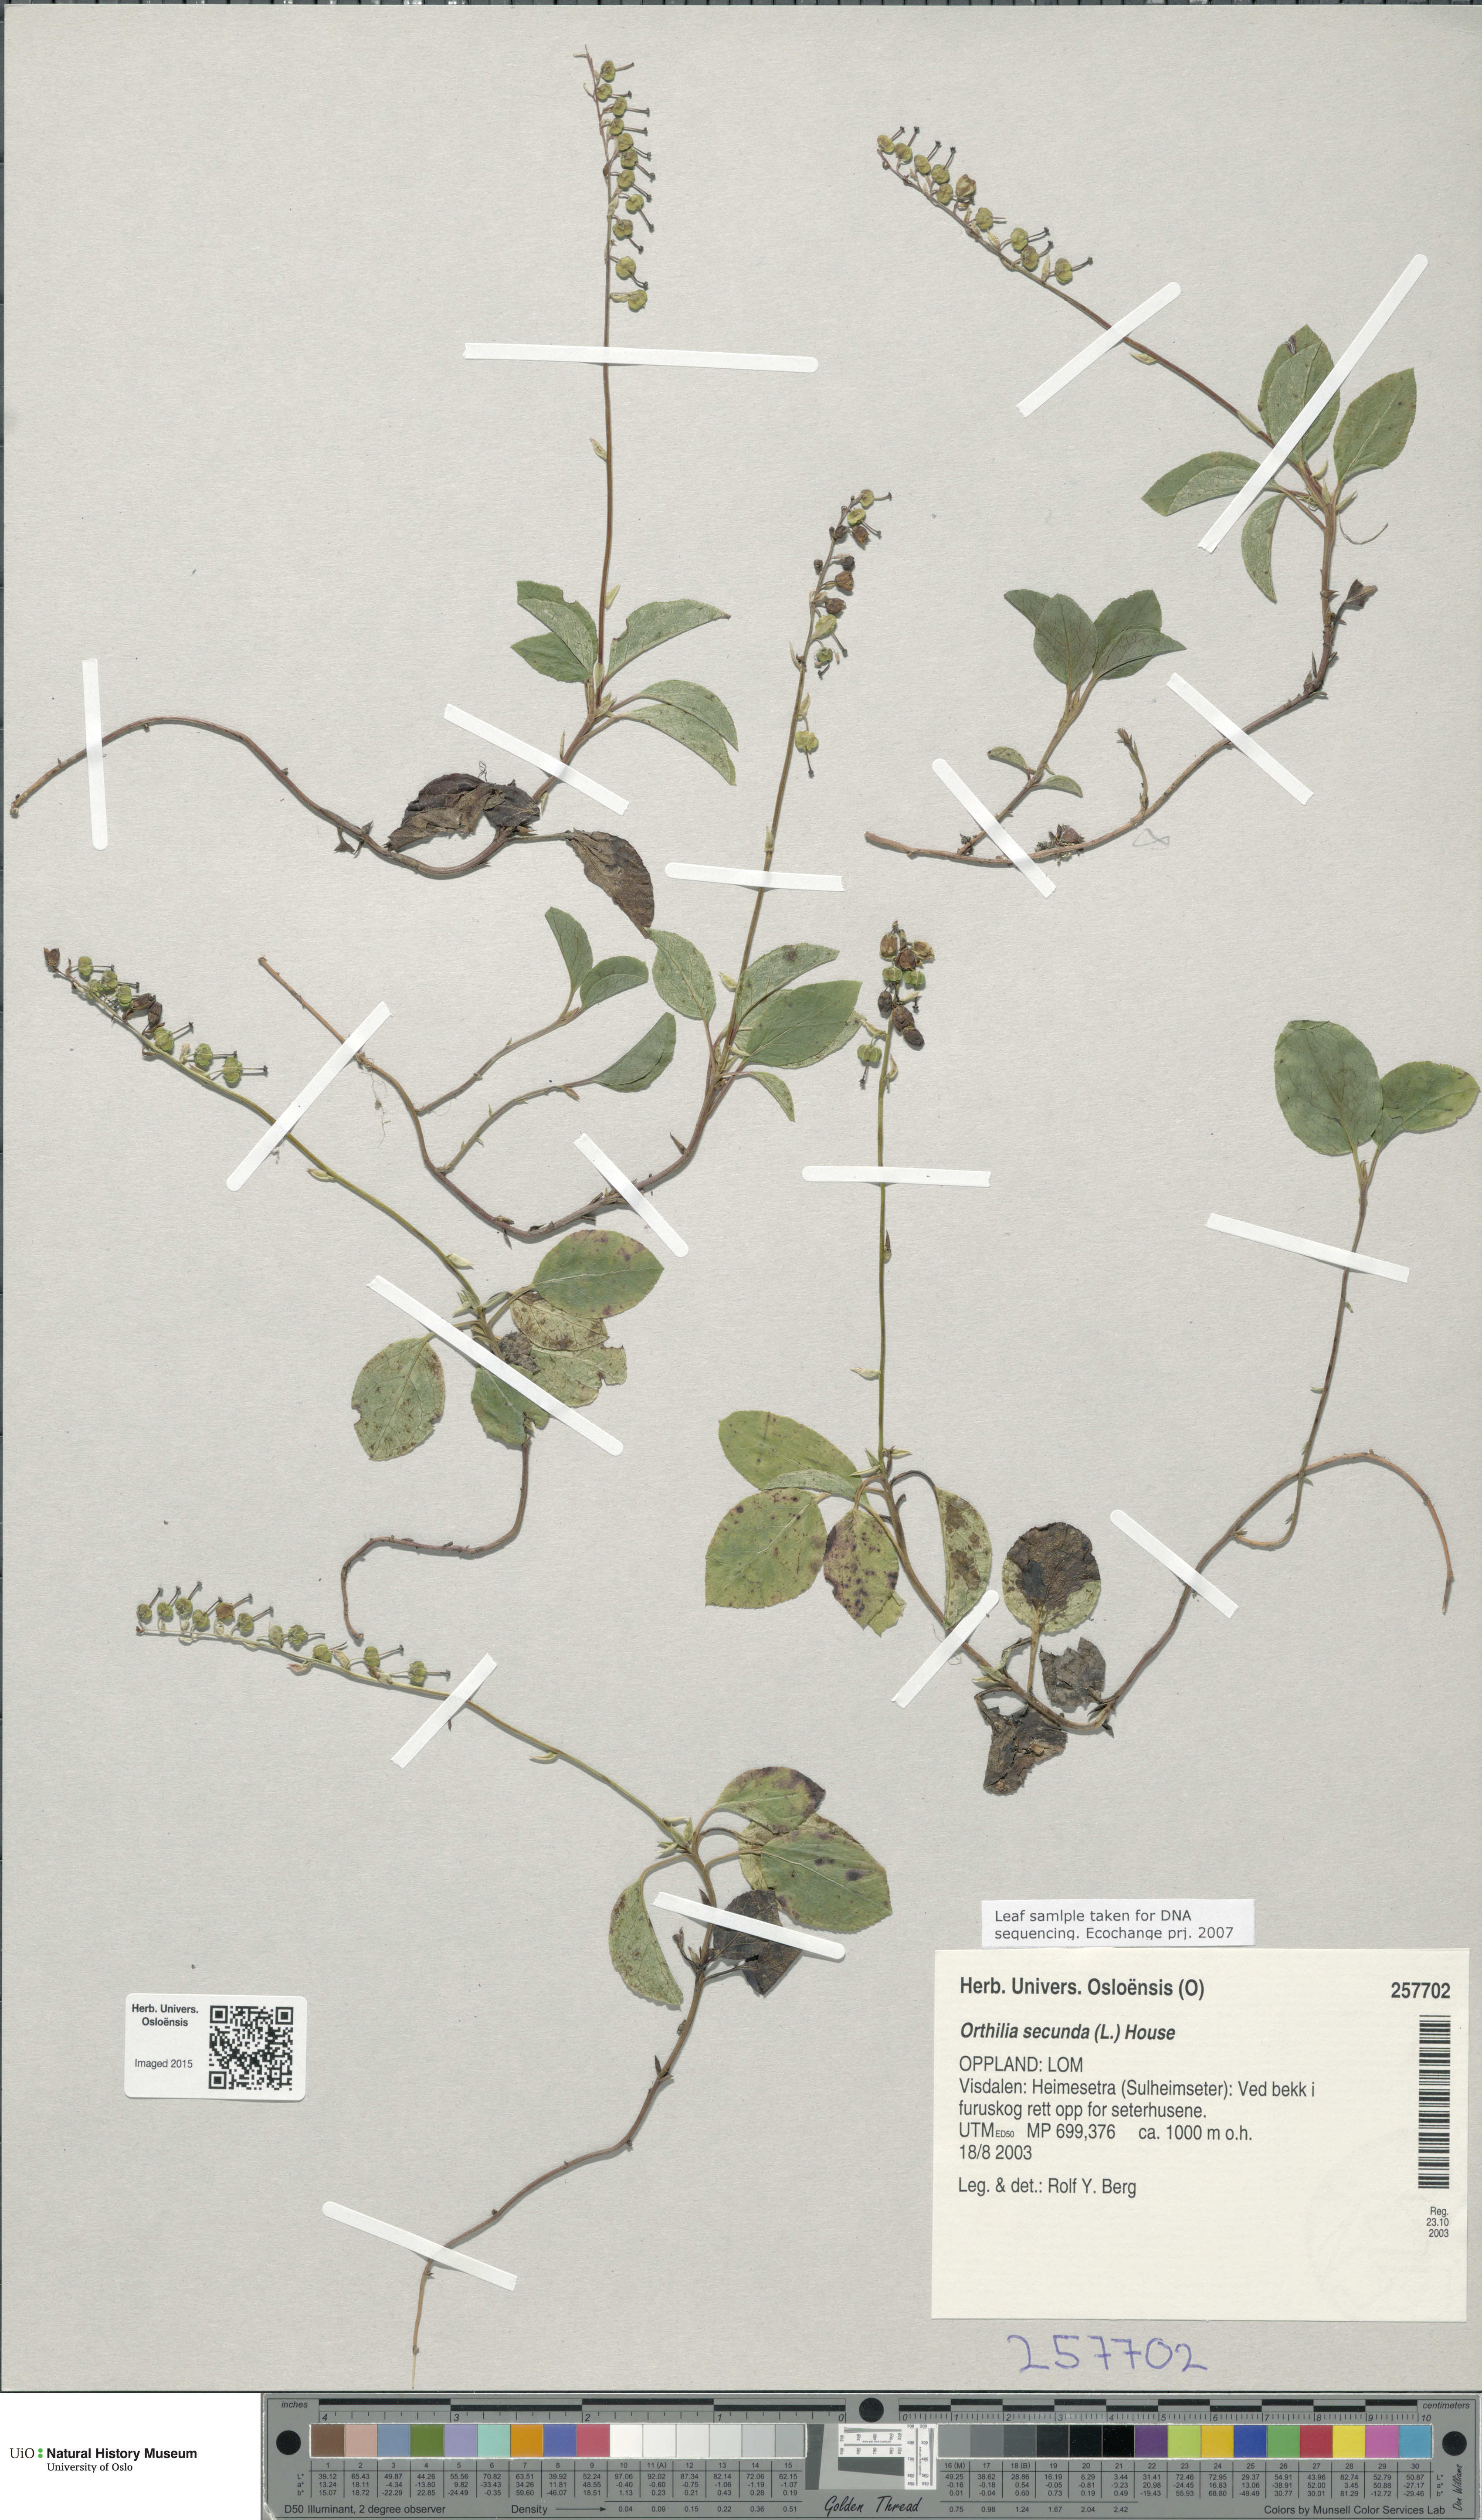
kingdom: Plantae
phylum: Tracheophyta
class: Magnoliopsida
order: Ericales
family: Ericaceae
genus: Orthilia
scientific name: Orthilia secunda
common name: One-sided orthilia
